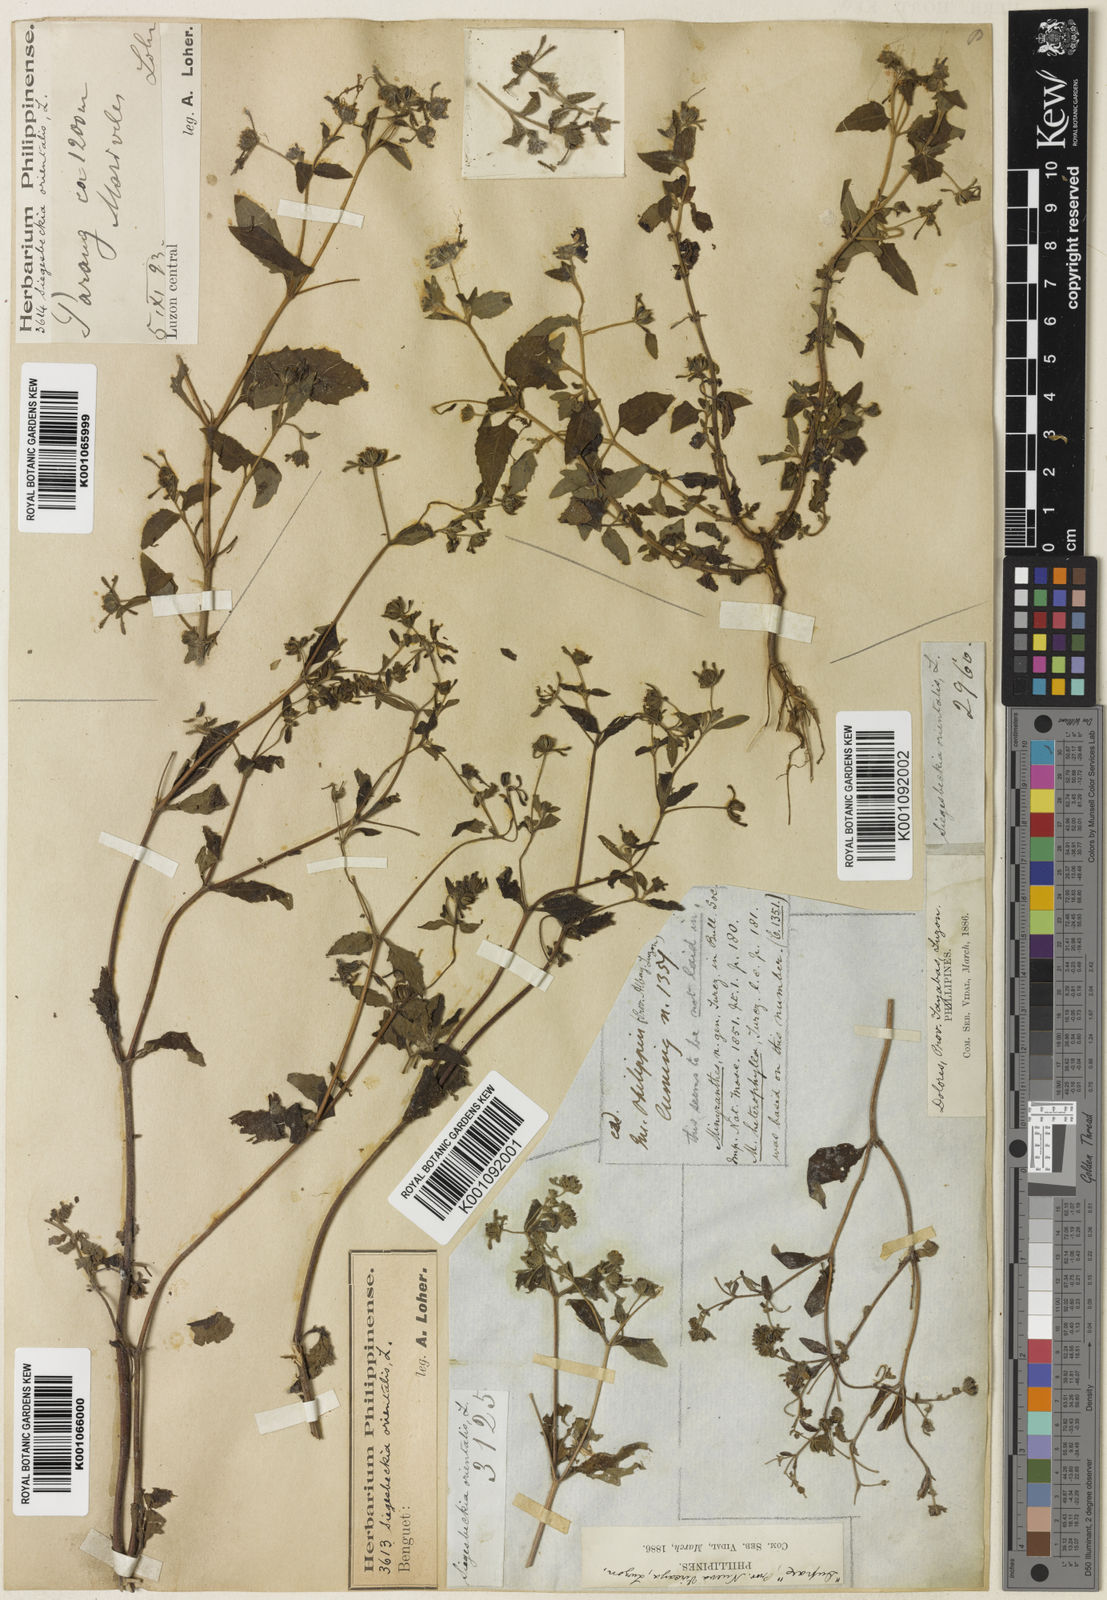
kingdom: Plantae
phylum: Tracheophyta
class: Magnoliopsida
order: Asterales
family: Asteraceae
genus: Sigesbeckia
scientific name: Sigesbeckia orientalis
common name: Eastern st paul's-wort
